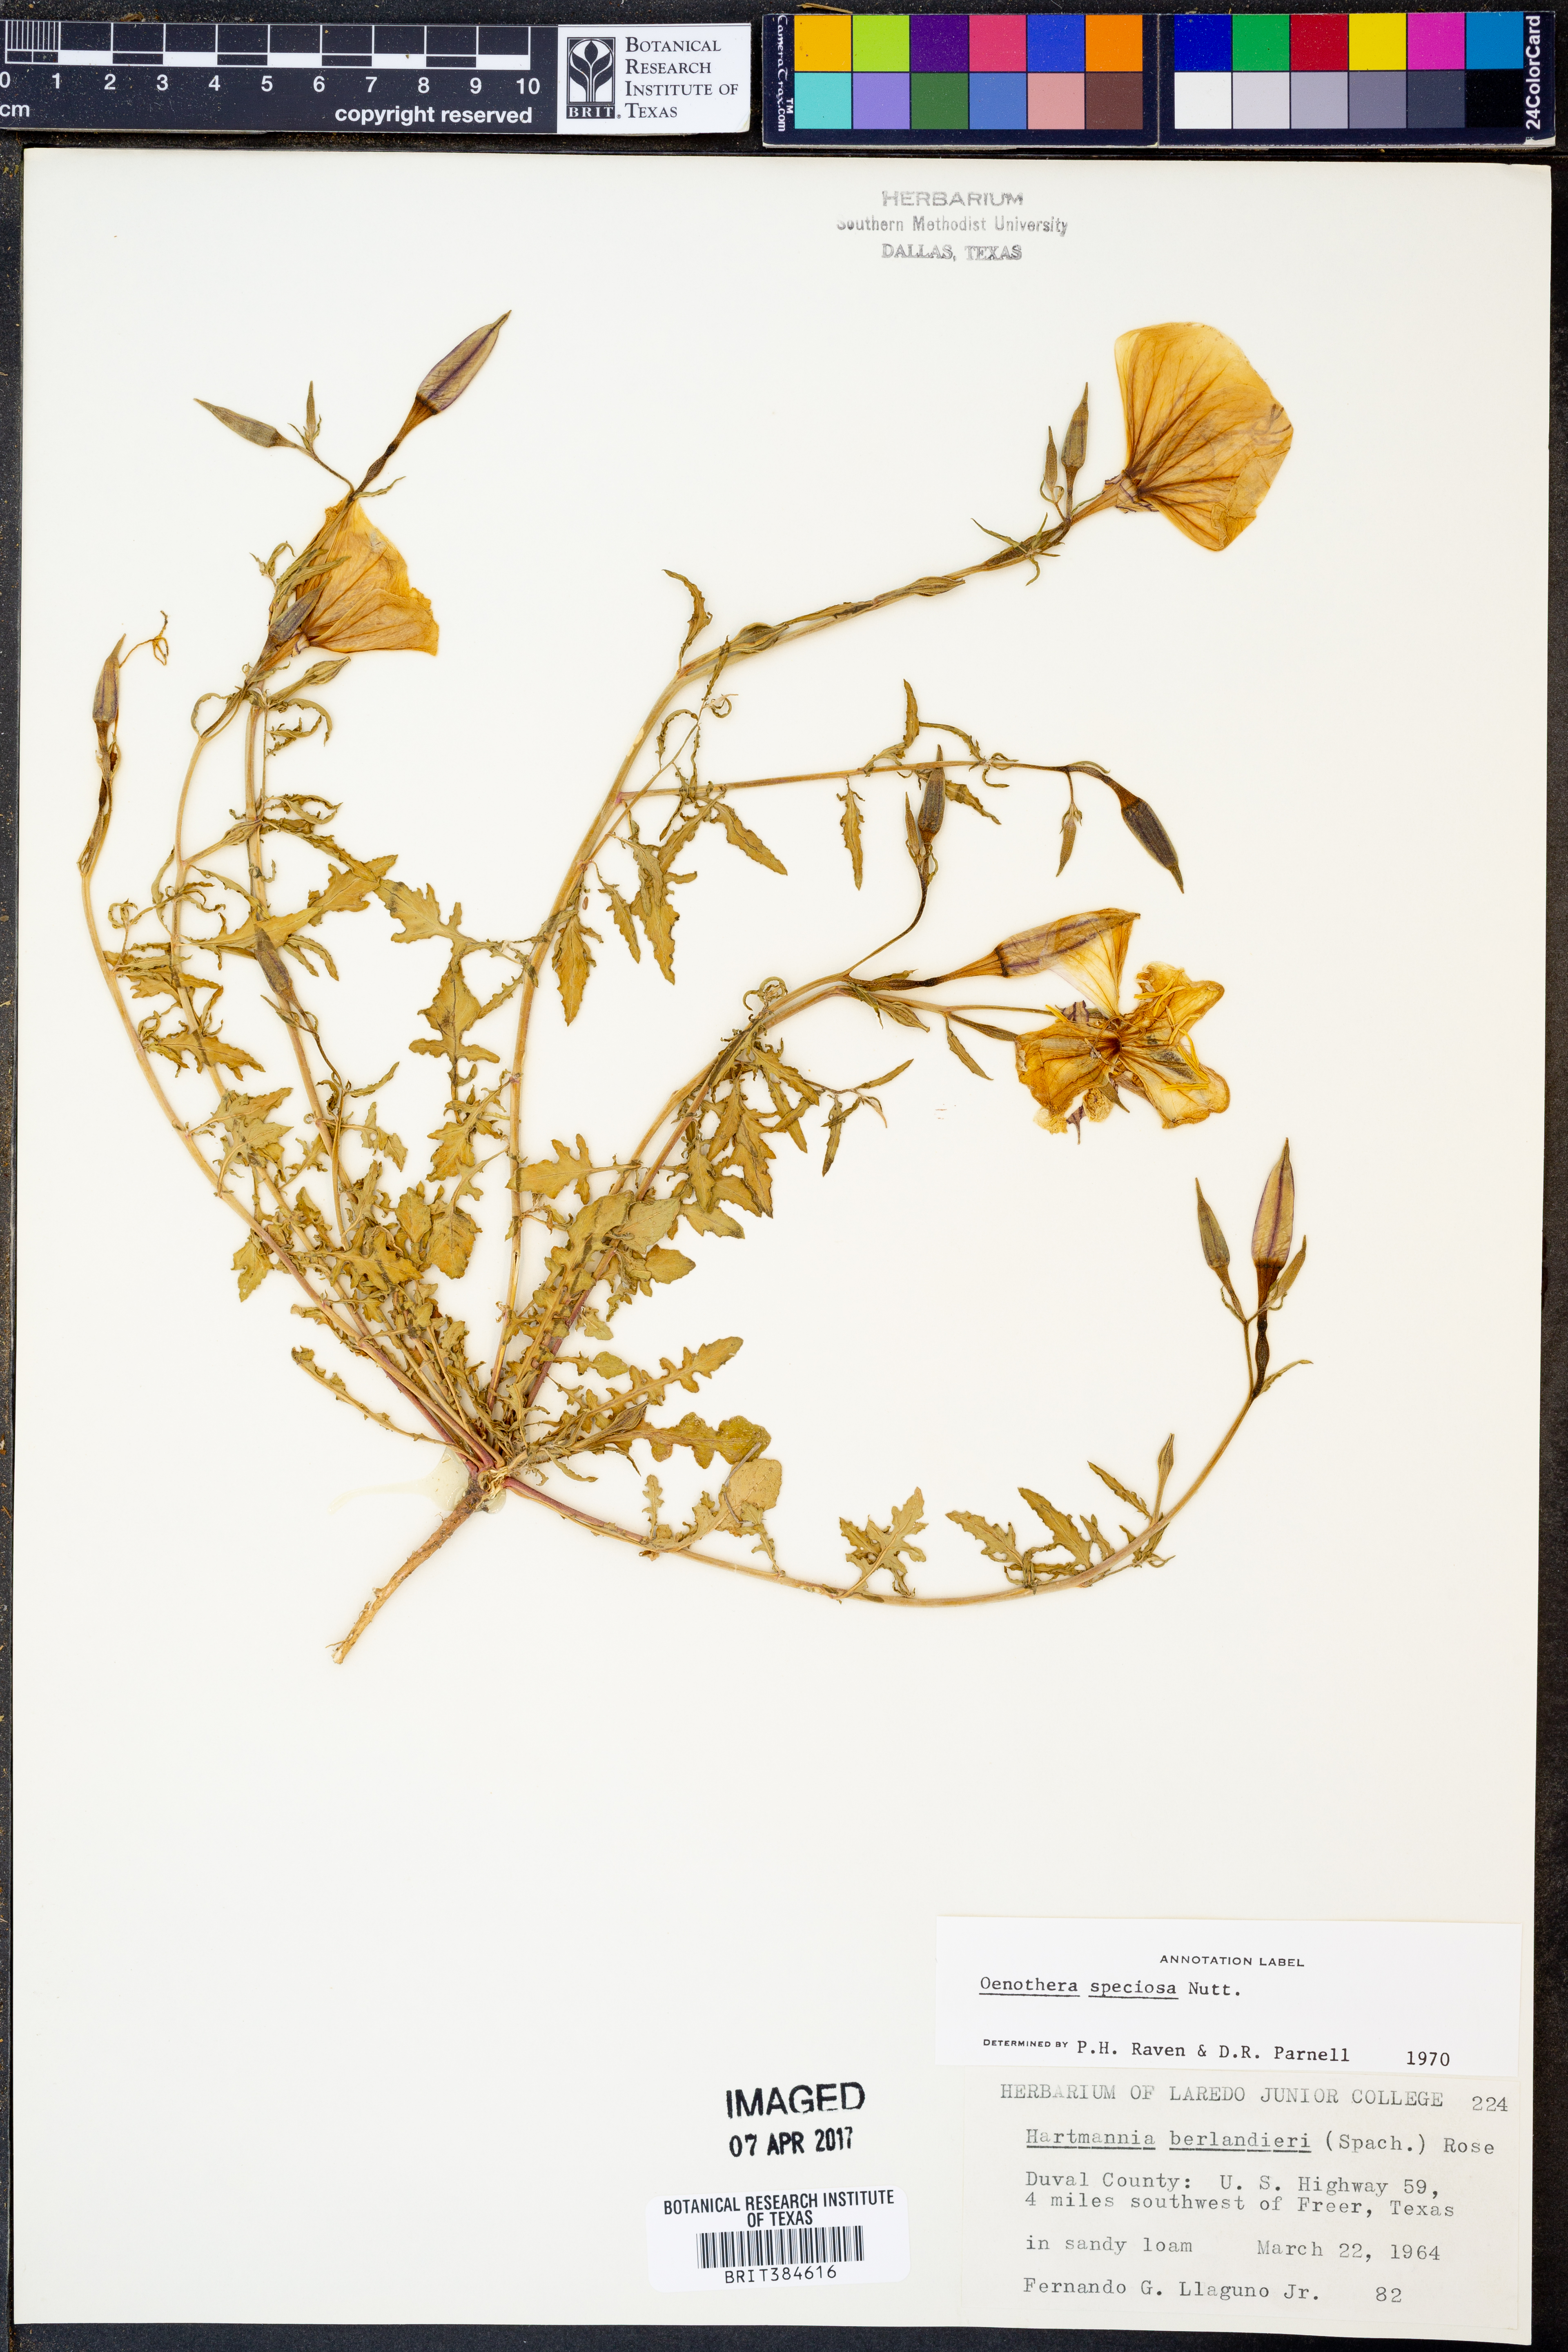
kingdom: Plantae
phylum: Tracheophyta
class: Magnoliopsida
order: Myrtales
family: Onagraceae
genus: Oenothera
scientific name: Oenothera speciosa
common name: White evening-primrose
